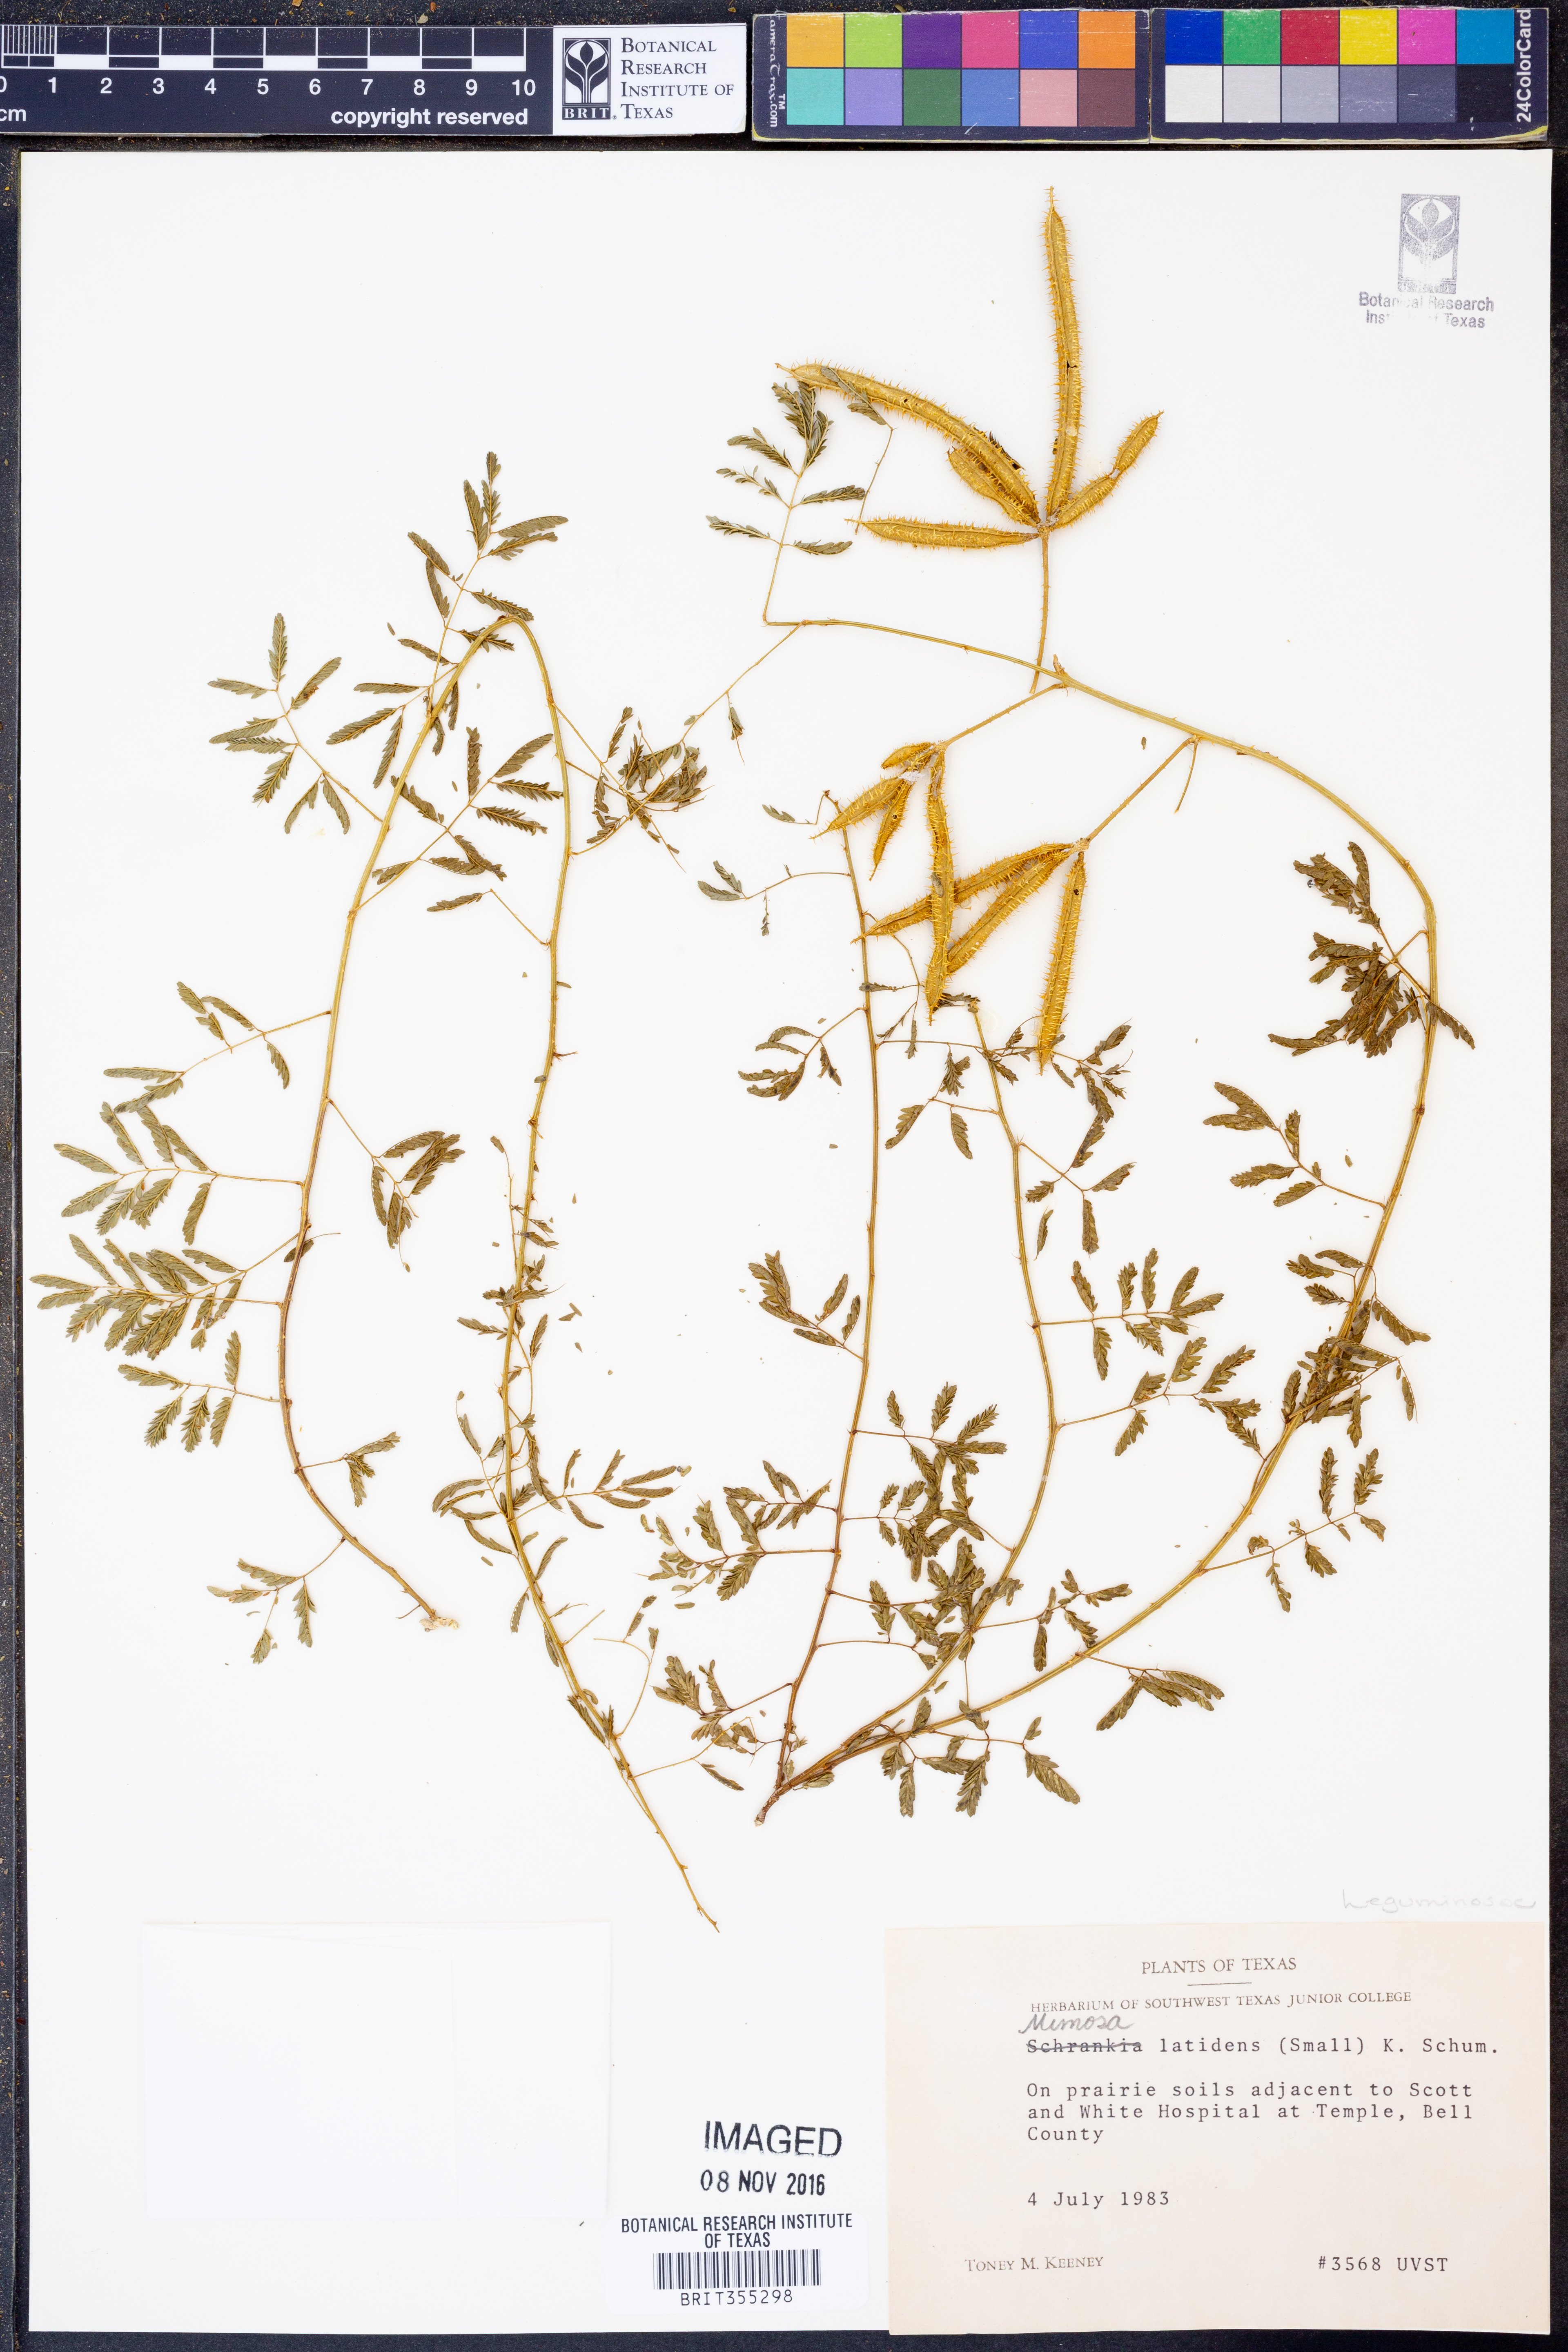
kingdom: Plantae
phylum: Tracheophyta
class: Magnoliopsida
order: Fabales
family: Fabaceae
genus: Mimosa
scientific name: Mimosa latidens
